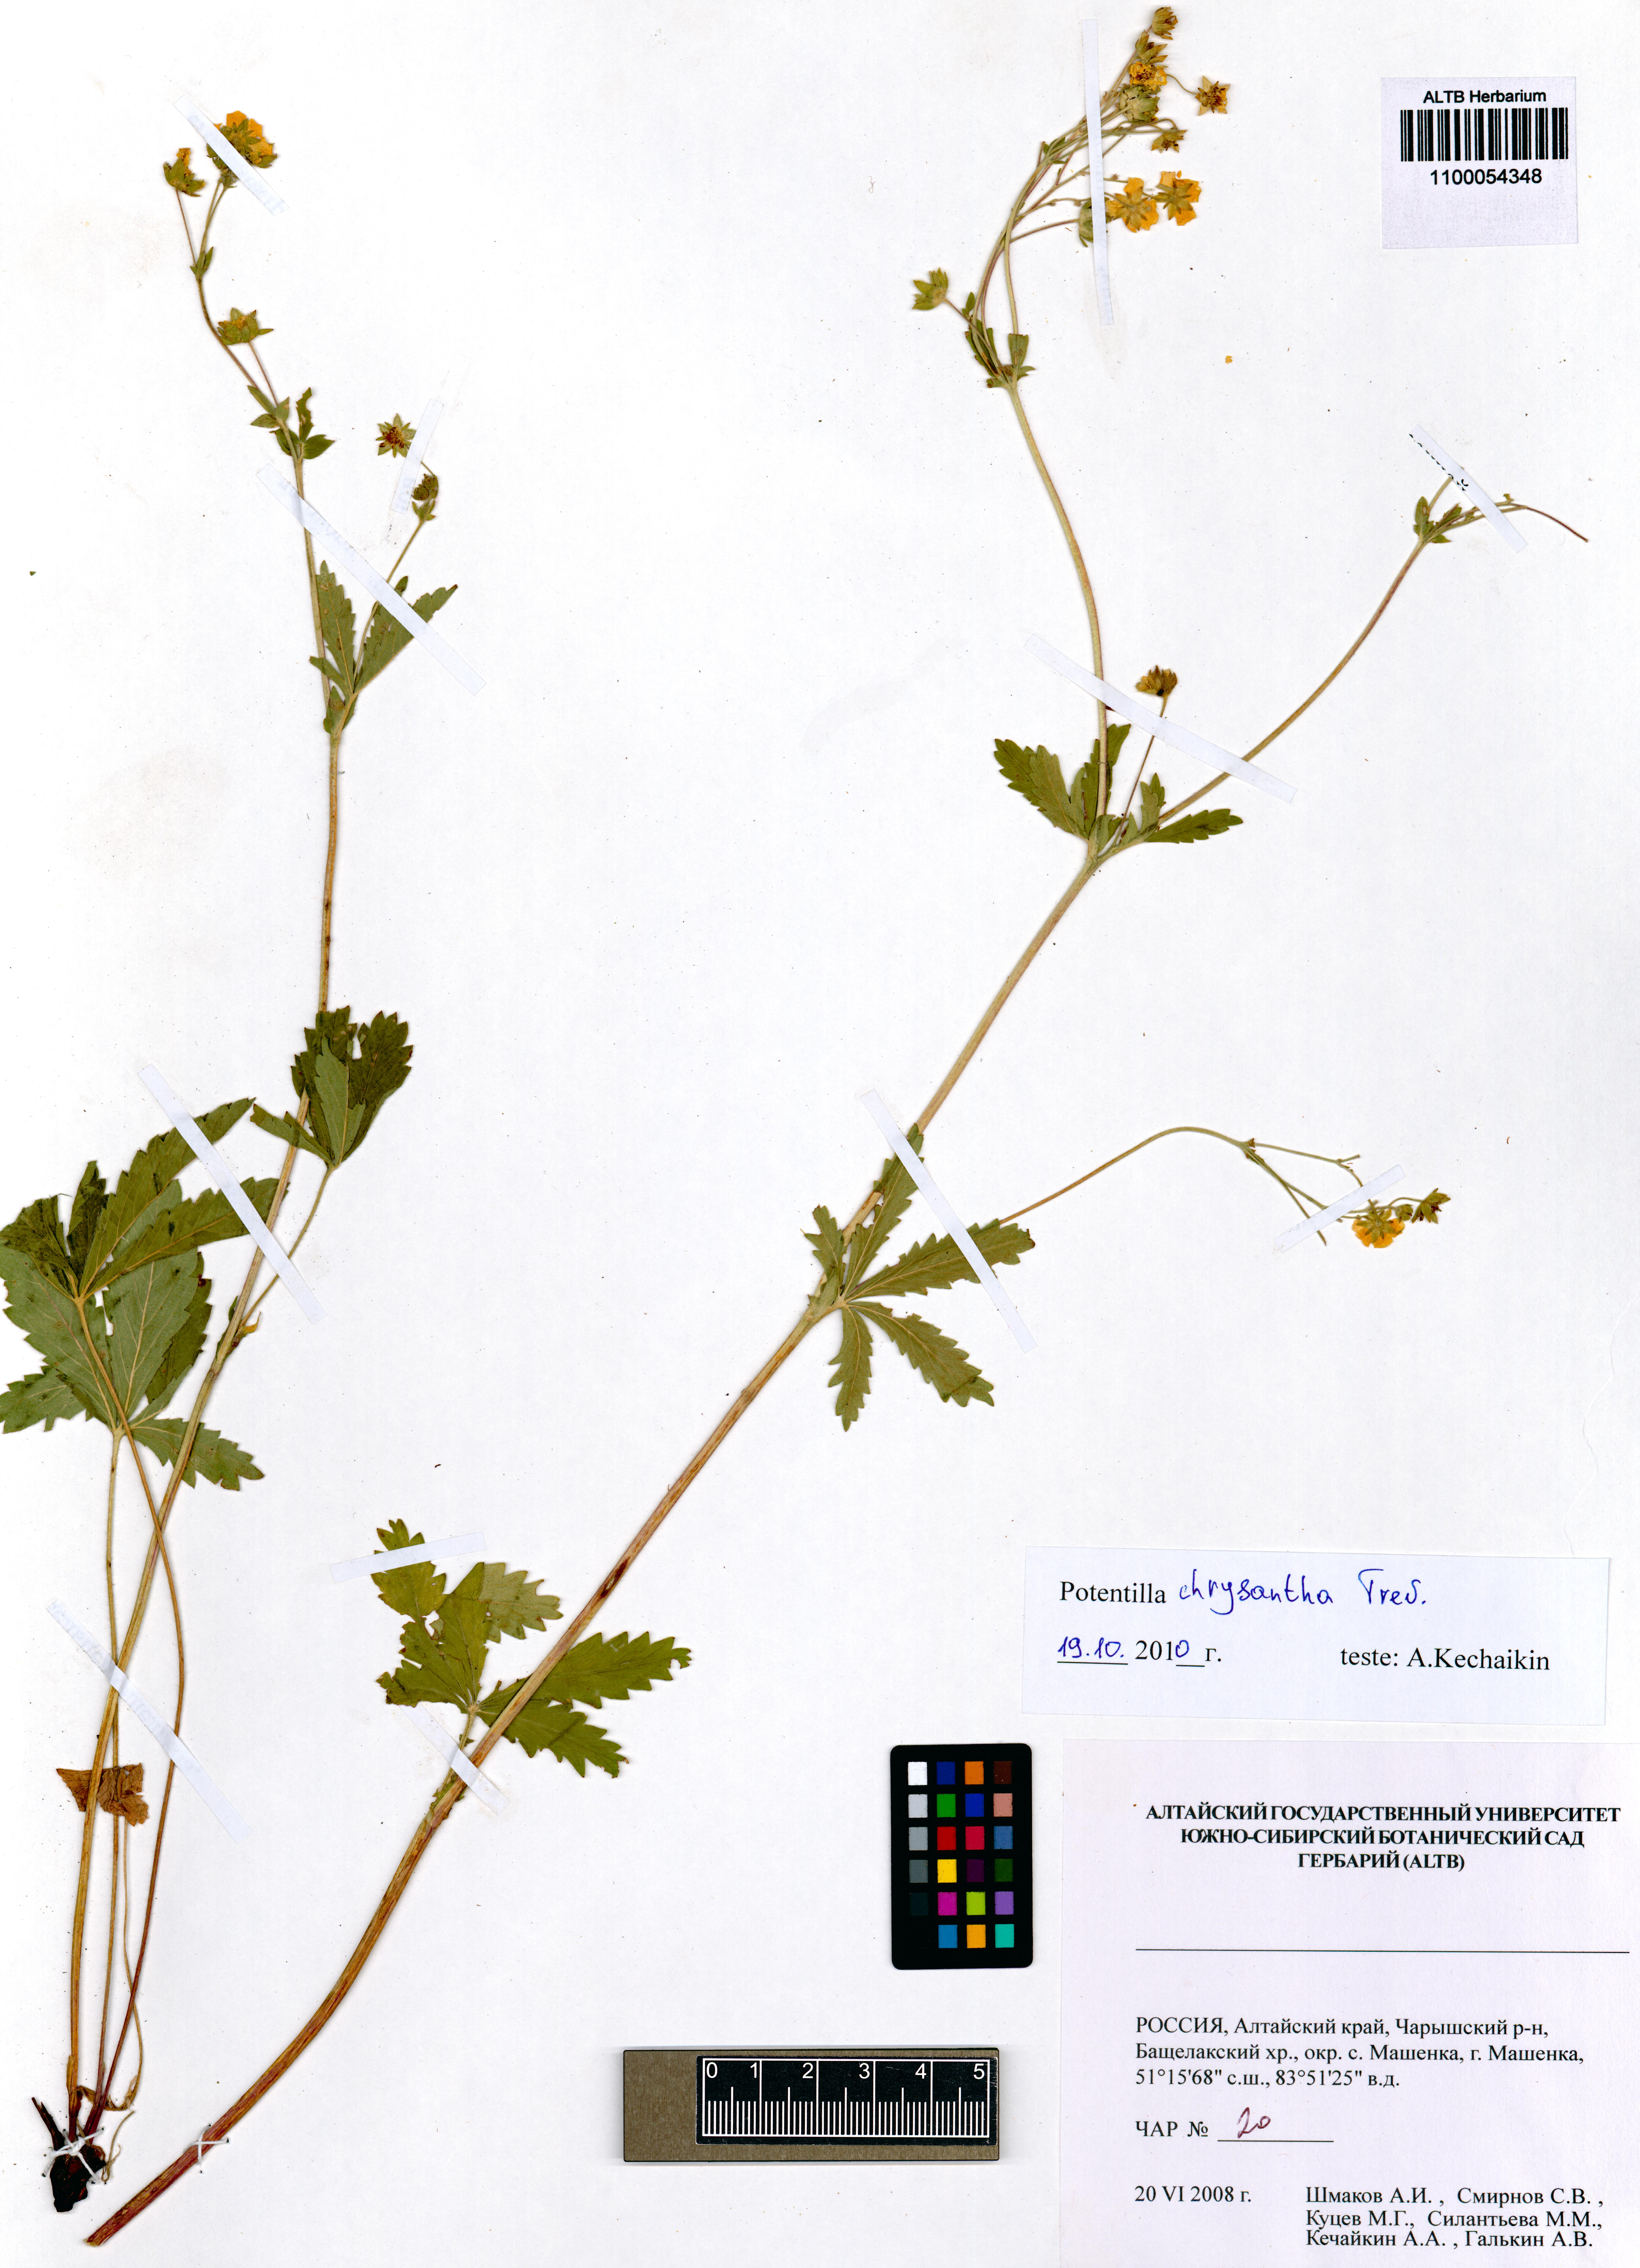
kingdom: Plantae
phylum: Tracheophyta
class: Magnoliopsida
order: Rosales
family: Rosaceae
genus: Potentilla
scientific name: Potentilla chrysantha
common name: Thuringian cinquefoil
